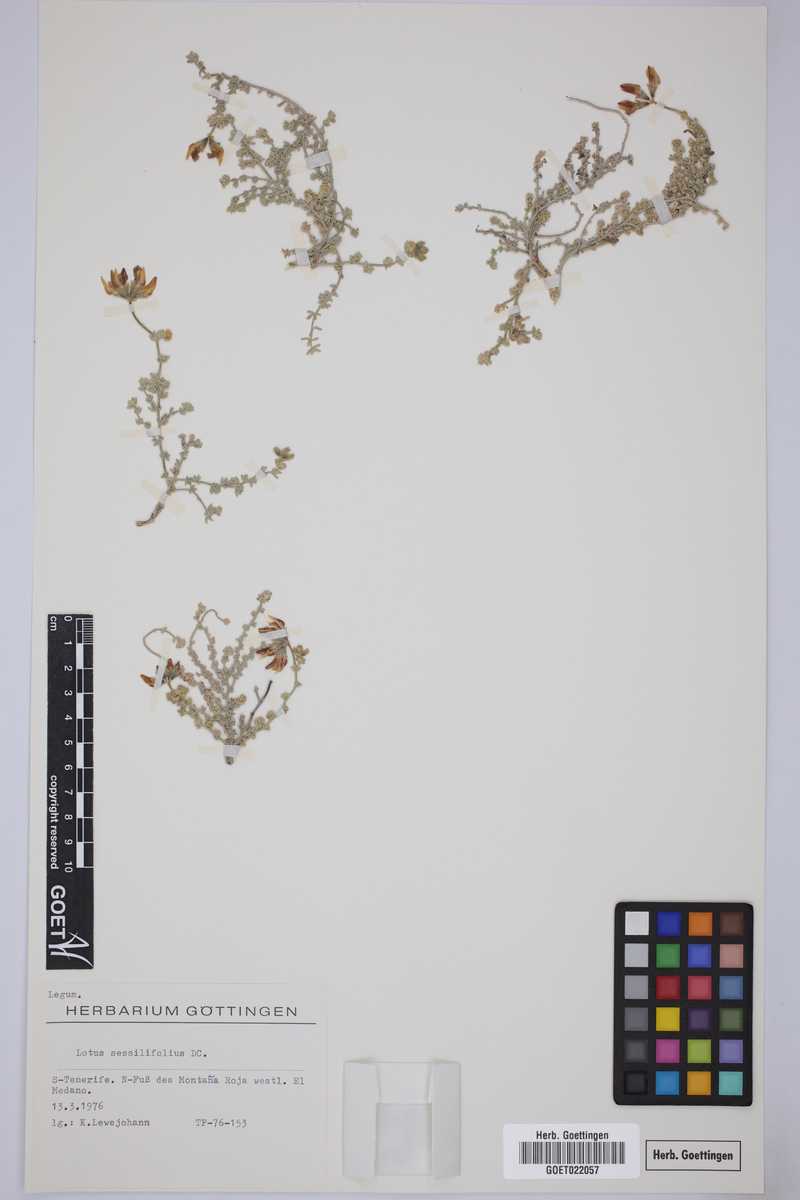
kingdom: Plantae
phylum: Tracheophyta
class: Magnoliopsida
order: Fabales
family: Fabaceae
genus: Lotus
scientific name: Lotus sessilifolius
